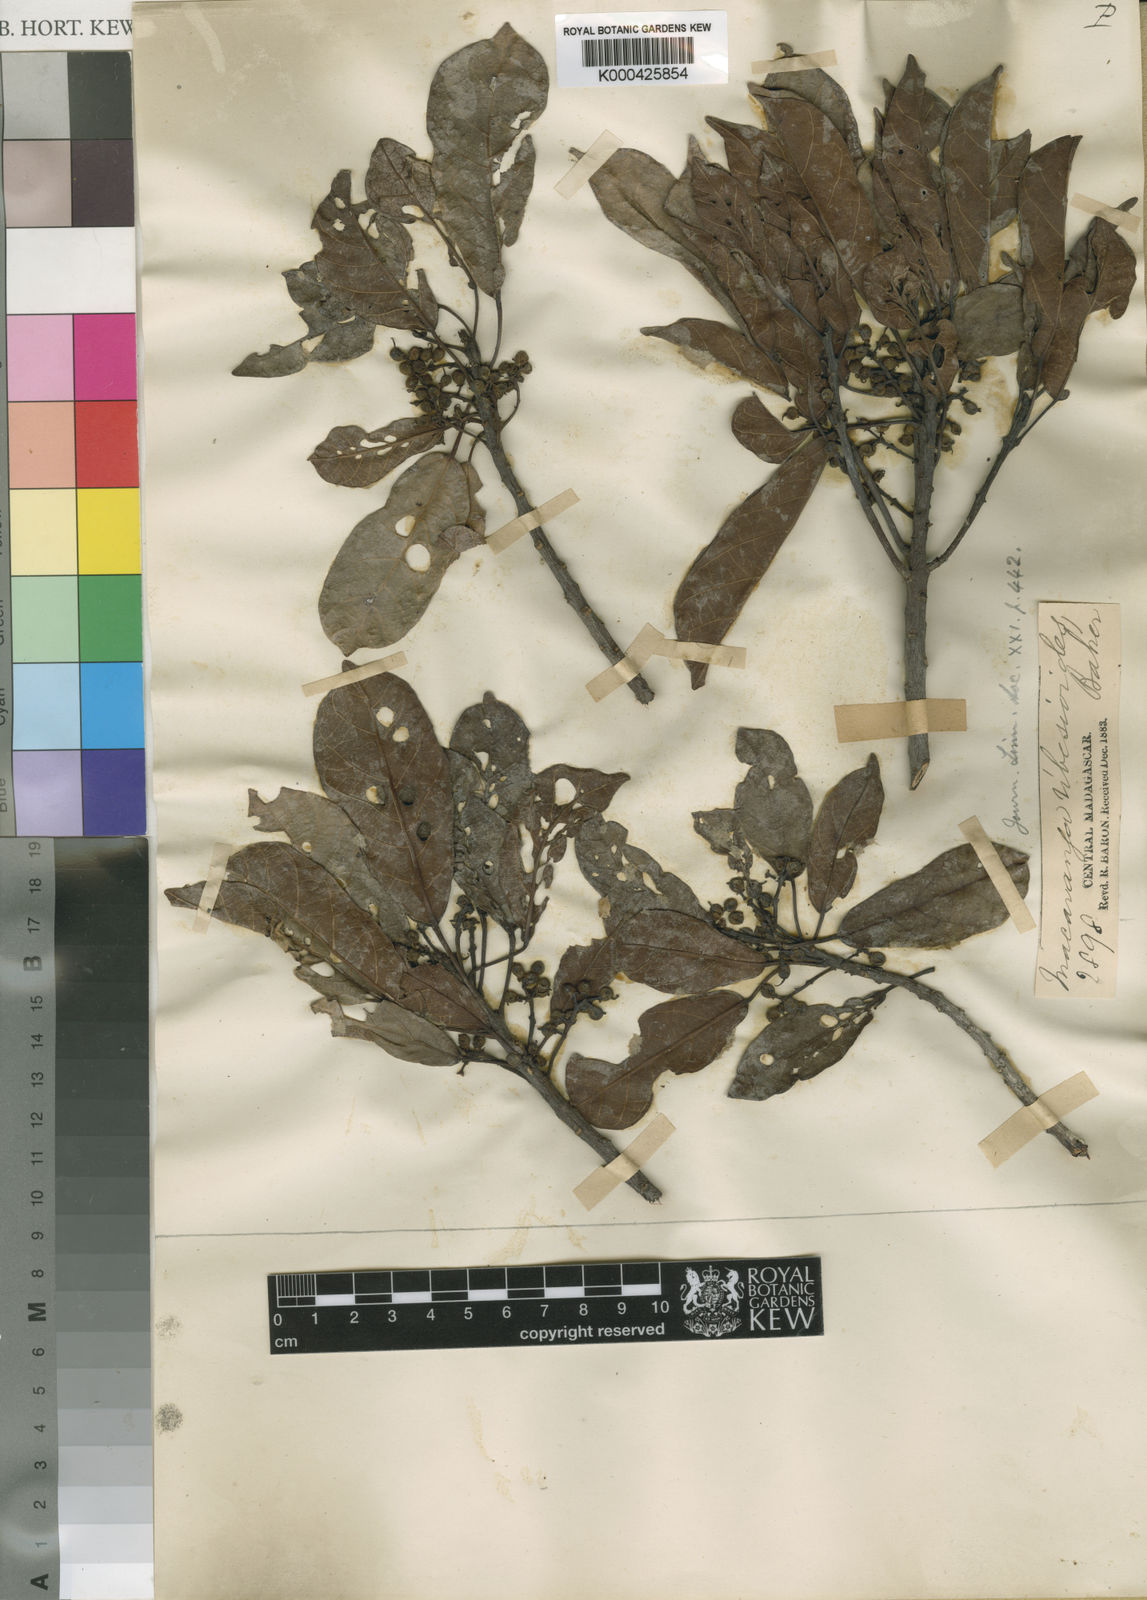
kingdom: Plantae
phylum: Tracheophyta
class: Magnoliopsida
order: Malpighiales
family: Euphorbiaceae
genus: Macaranga
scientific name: Macaranga ribesioides
